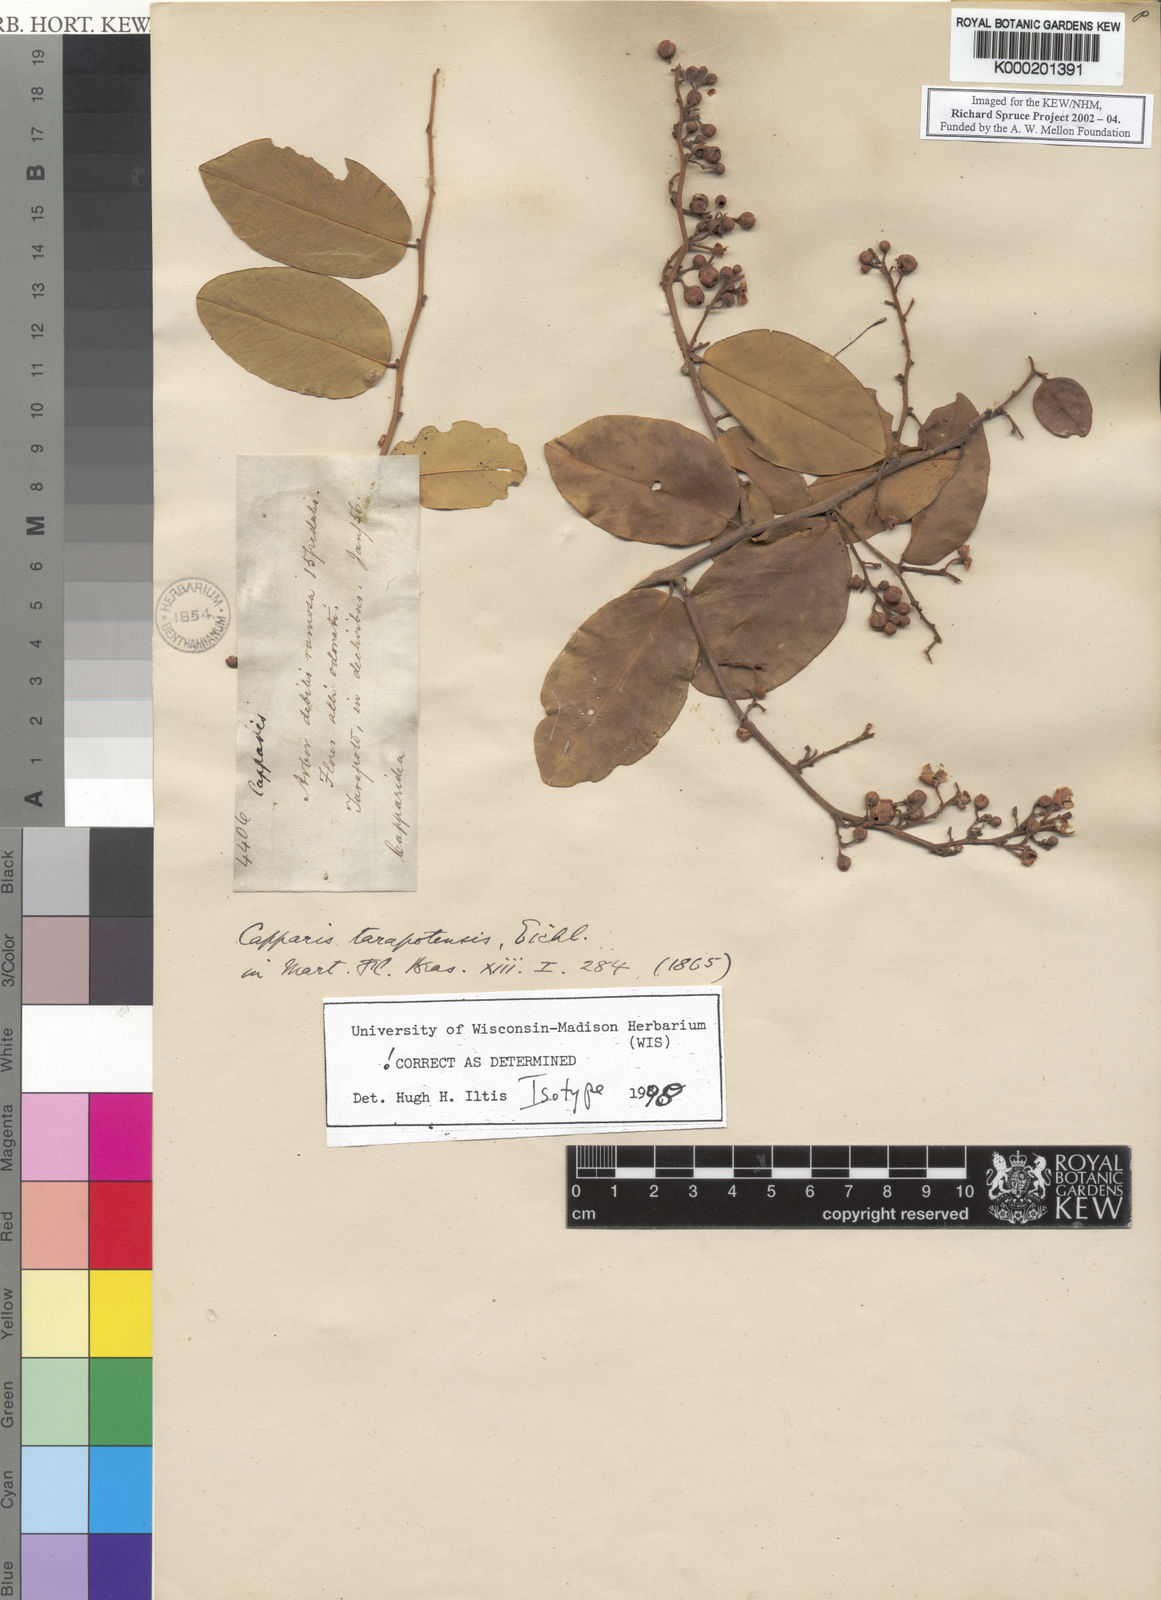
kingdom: Plantae
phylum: Tracheophyta
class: Magnoliopsida
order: Brassicales
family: Capparaceae
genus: Cynophalla
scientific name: Cynophalla tarapotensis
